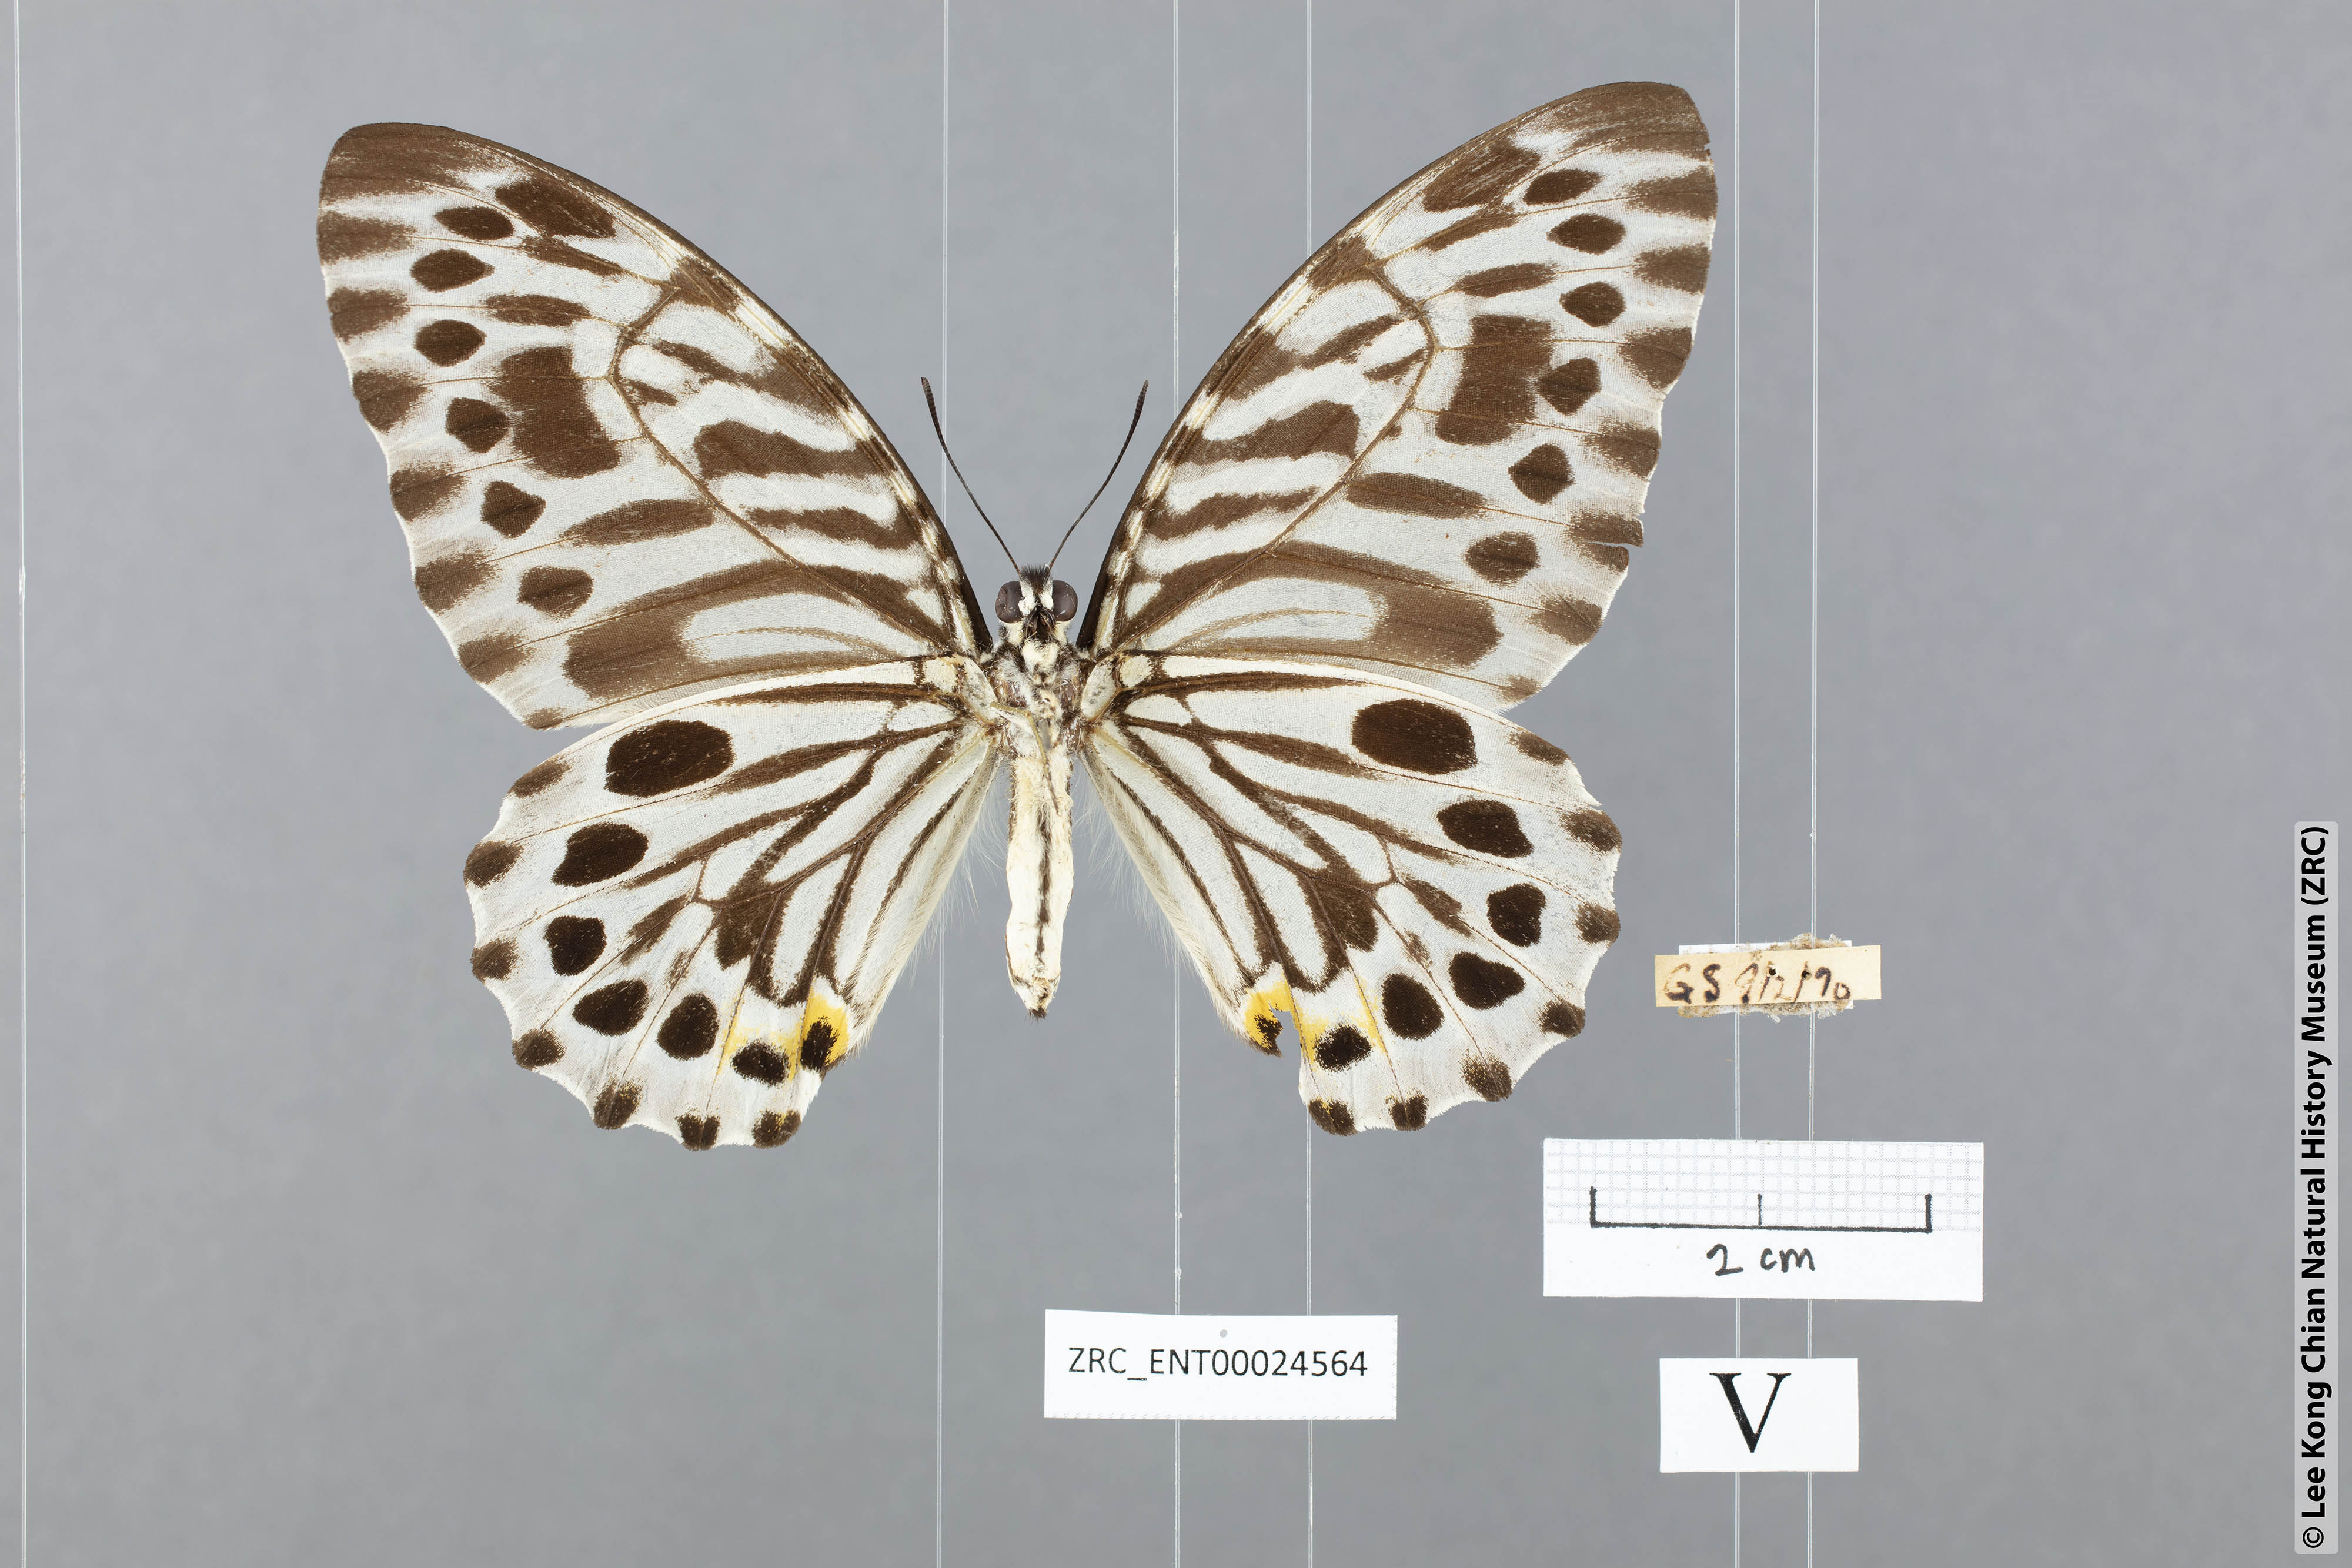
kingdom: Animalia
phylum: Arthropoda
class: Insecta
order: Lepidoptera
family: Papilionidae
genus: Graphium
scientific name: Graphium delesserti
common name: Malayan zebra
